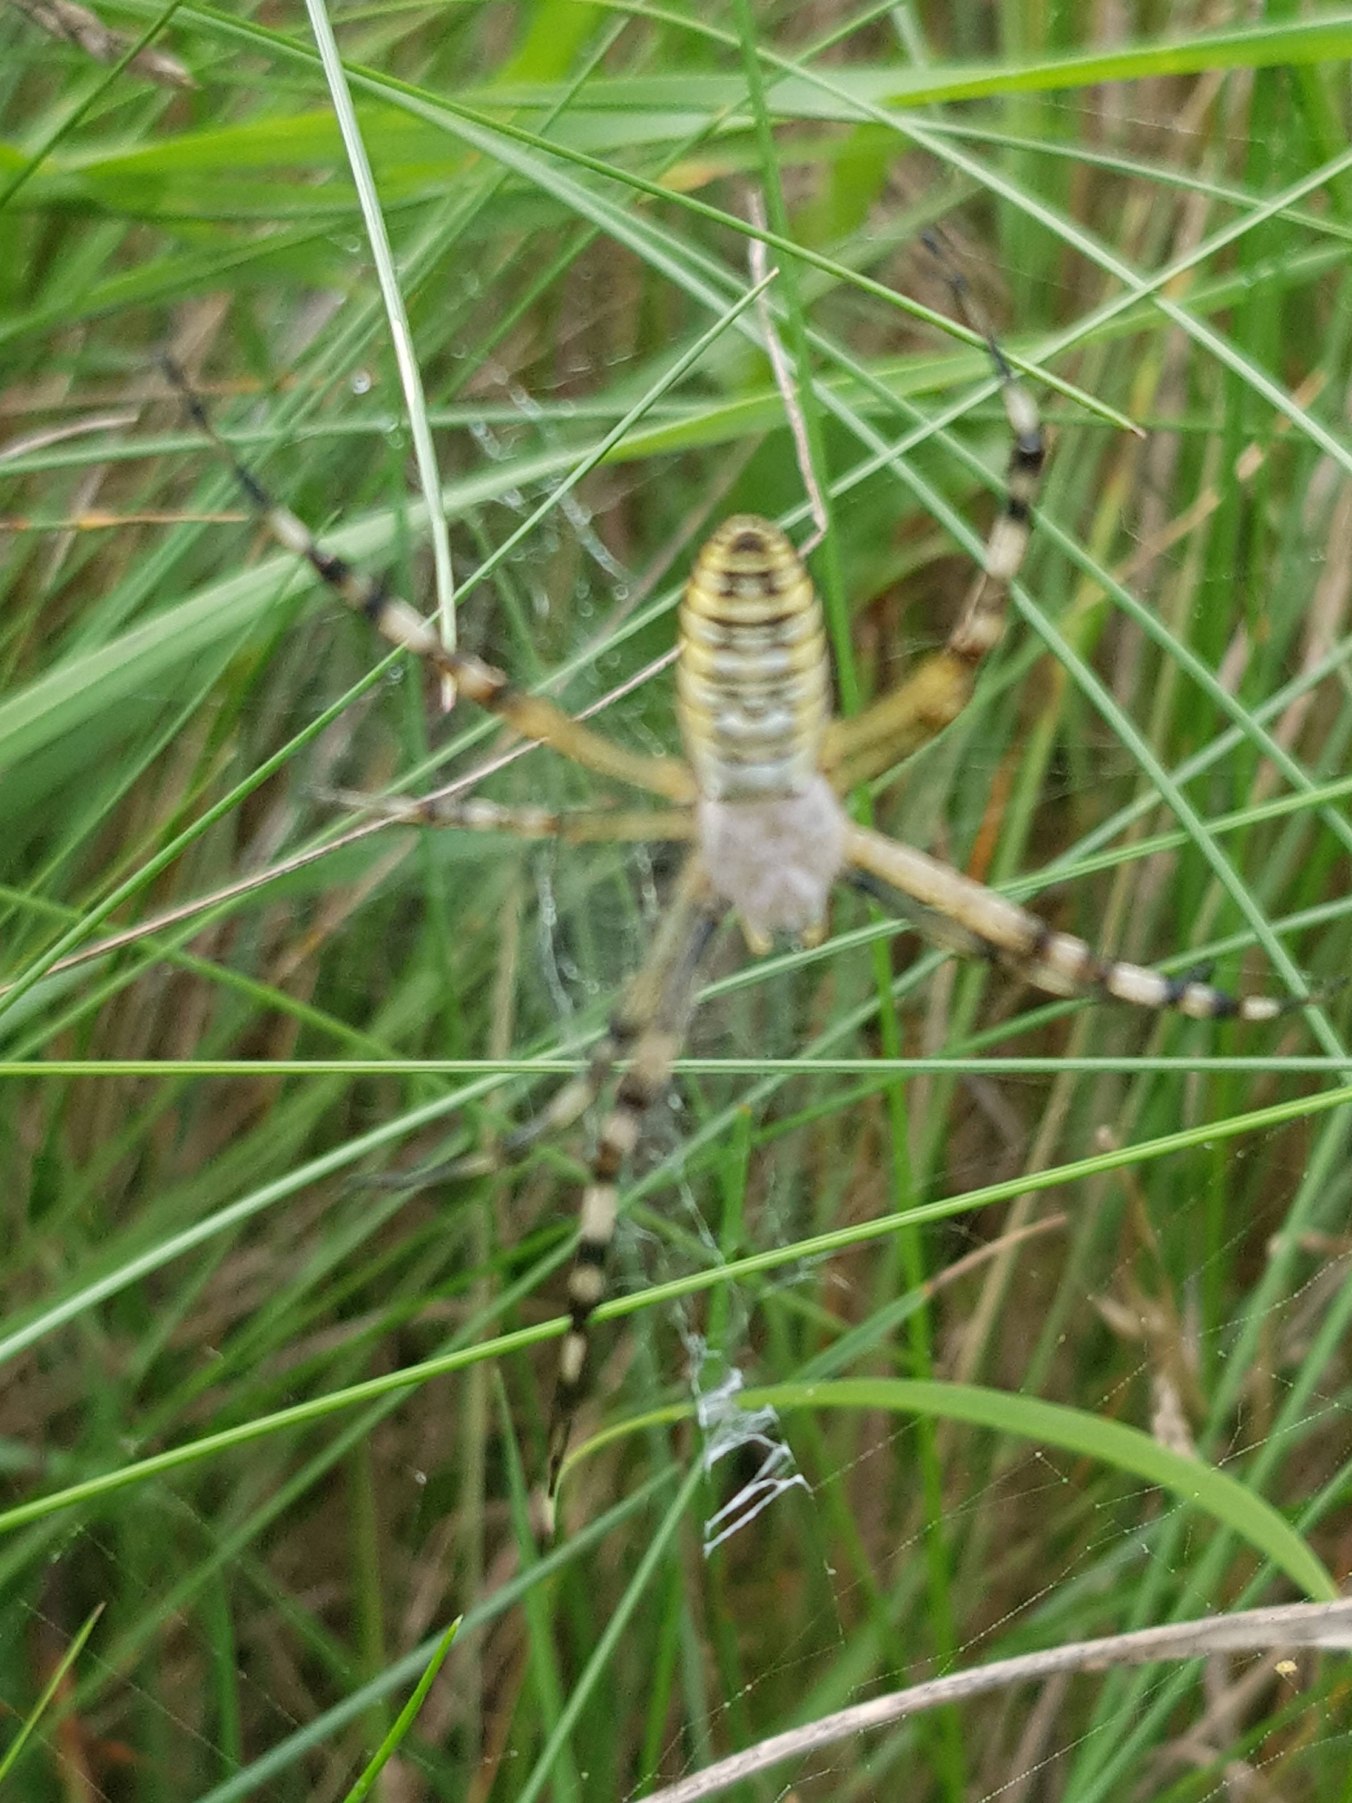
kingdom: Animalia
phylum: Arthropoda
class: Arachnida
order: Araneae
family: Araneidae
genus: Argiope
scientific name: Argiope bruennichi
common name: Hvepseedderkop
